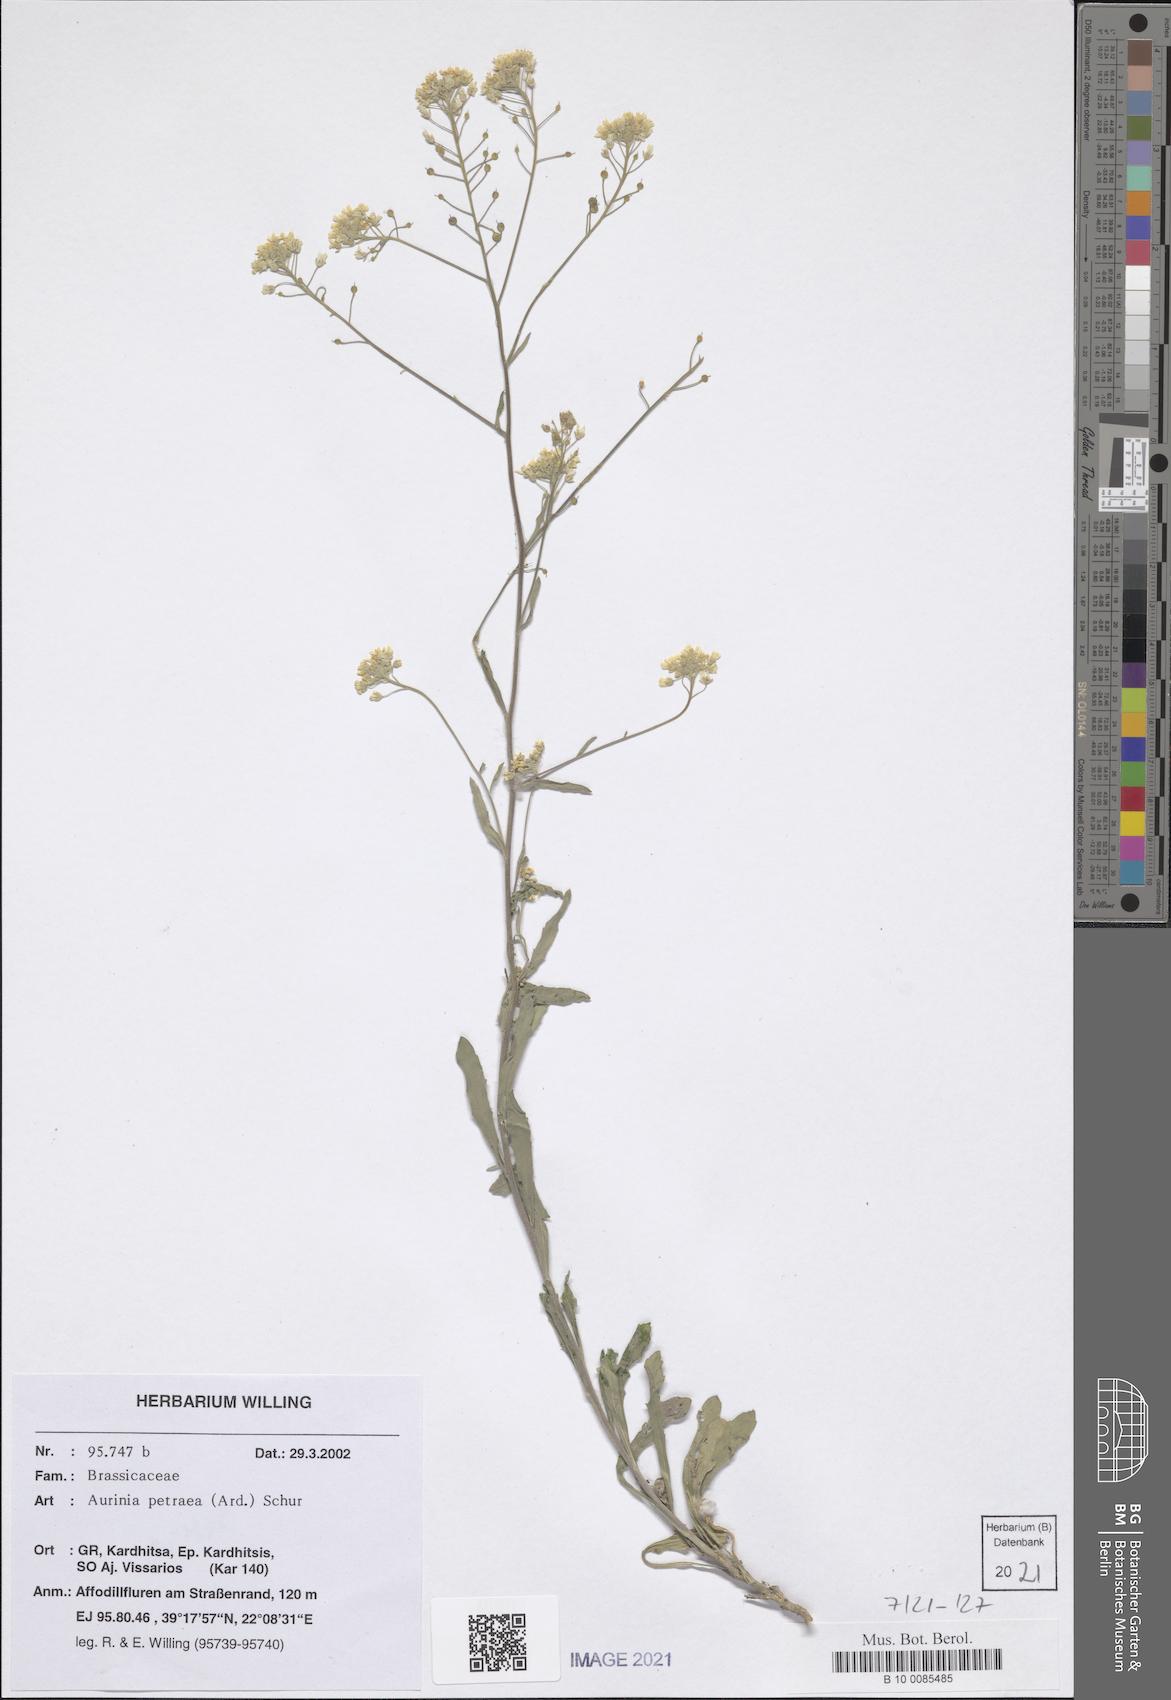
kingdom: Plantae
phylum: Tracheophyta
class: Magnoliopsida
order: Brassicales
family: Brassicaceae
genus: Aurinia
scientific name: Aurinia petraea
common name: Goldentuft
